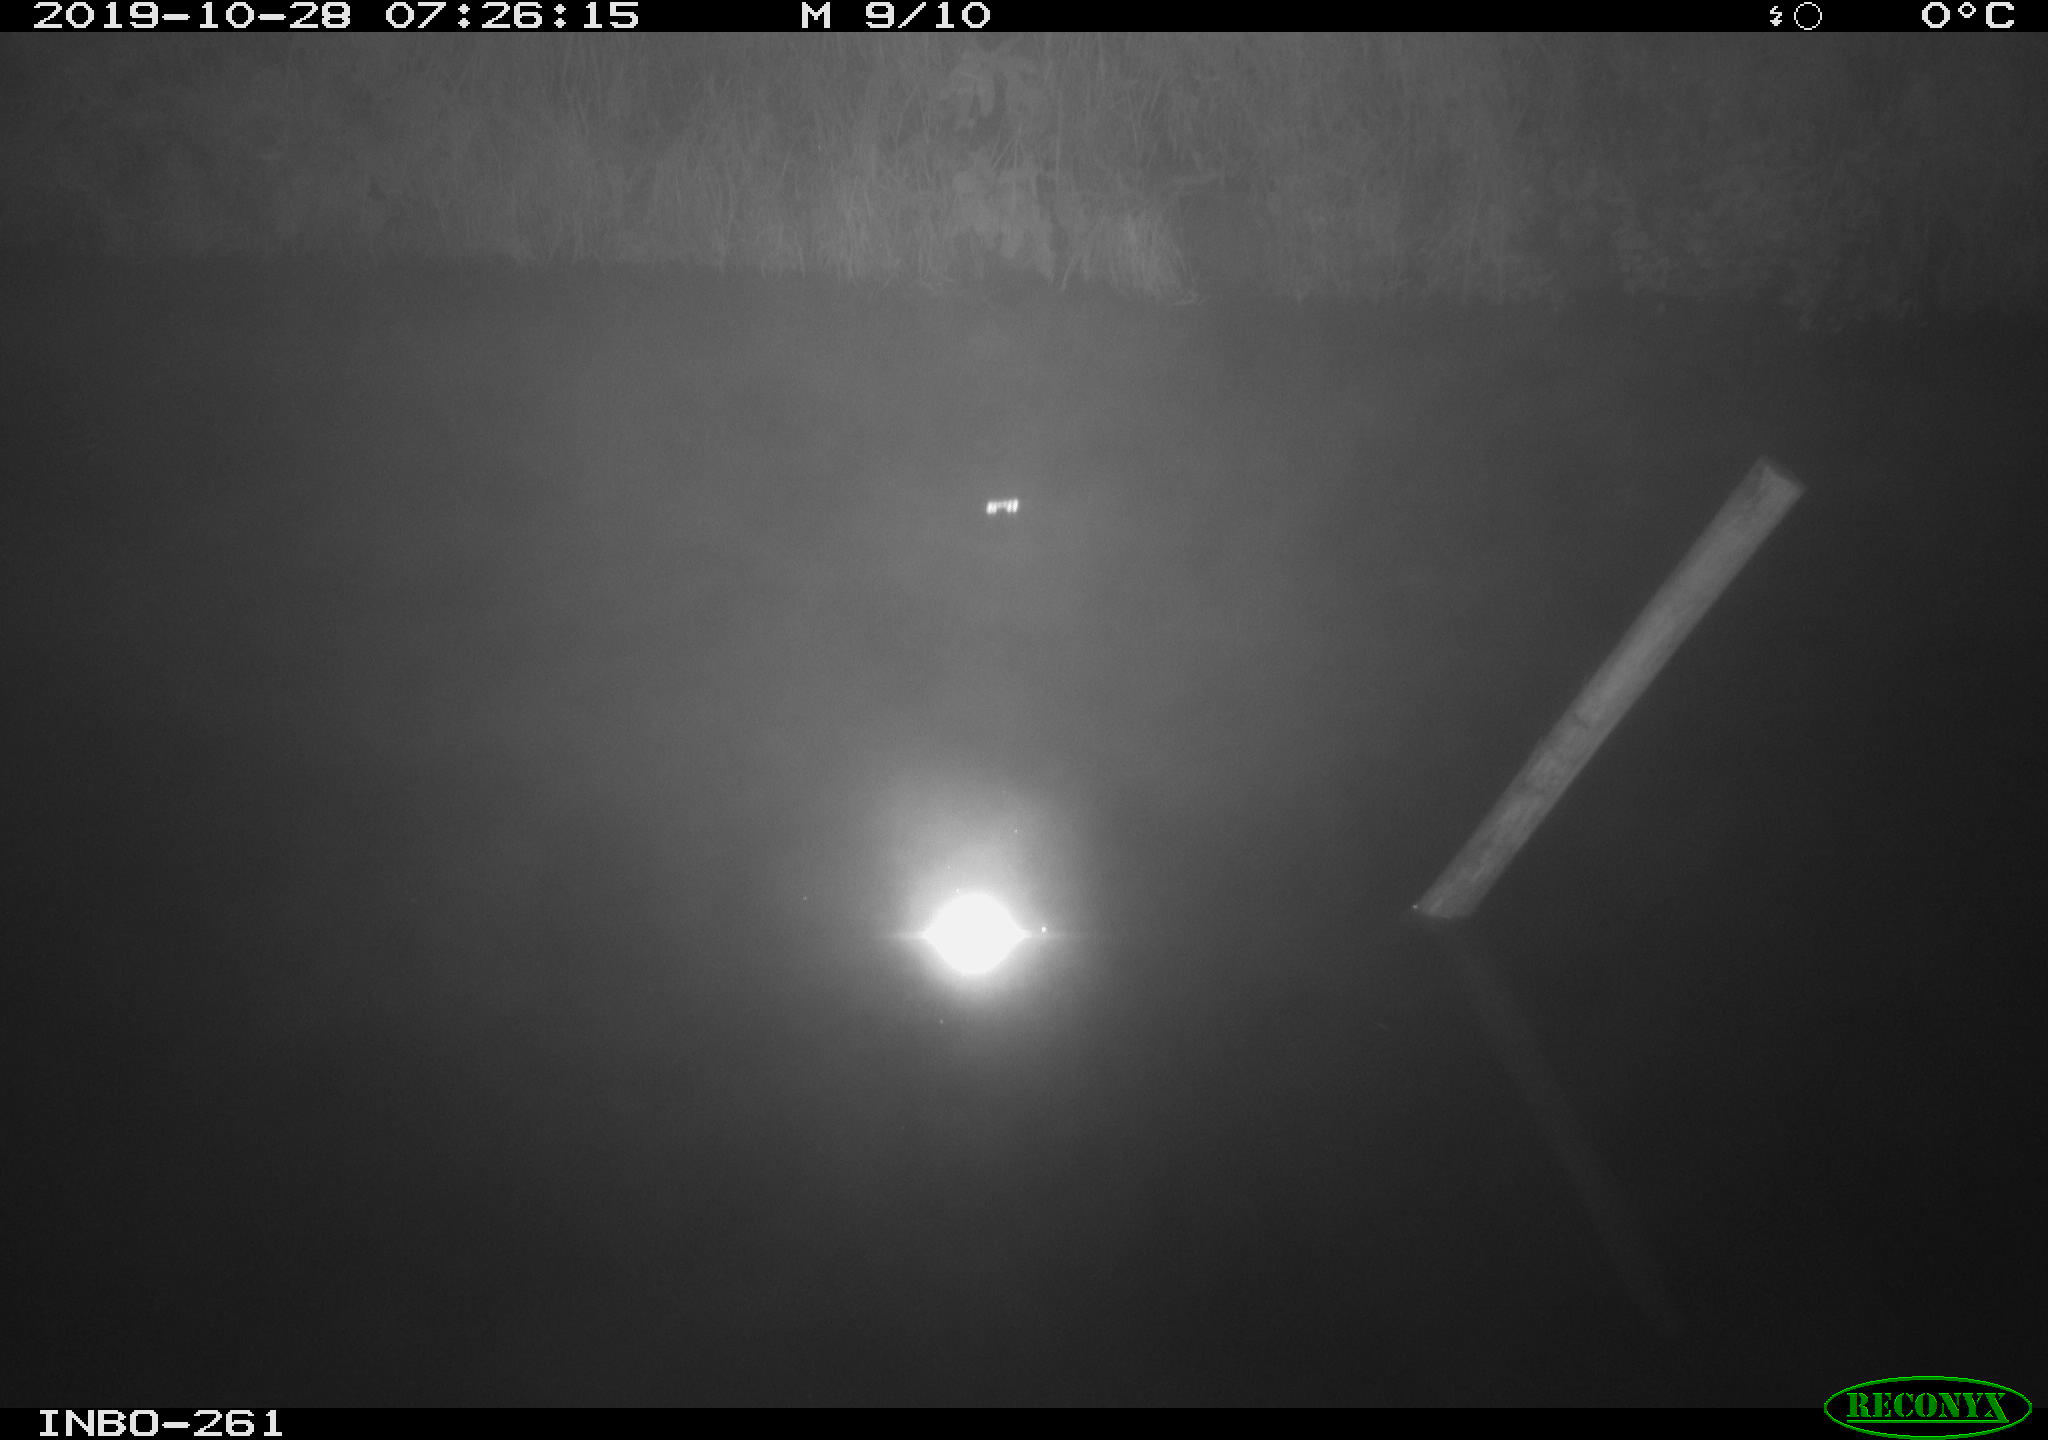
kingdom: Animalia
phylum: Chordata
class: Aves
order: Anseriformes
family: Anatidae
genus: Anas
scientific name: Anas platyrhynchos
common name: Mallard
